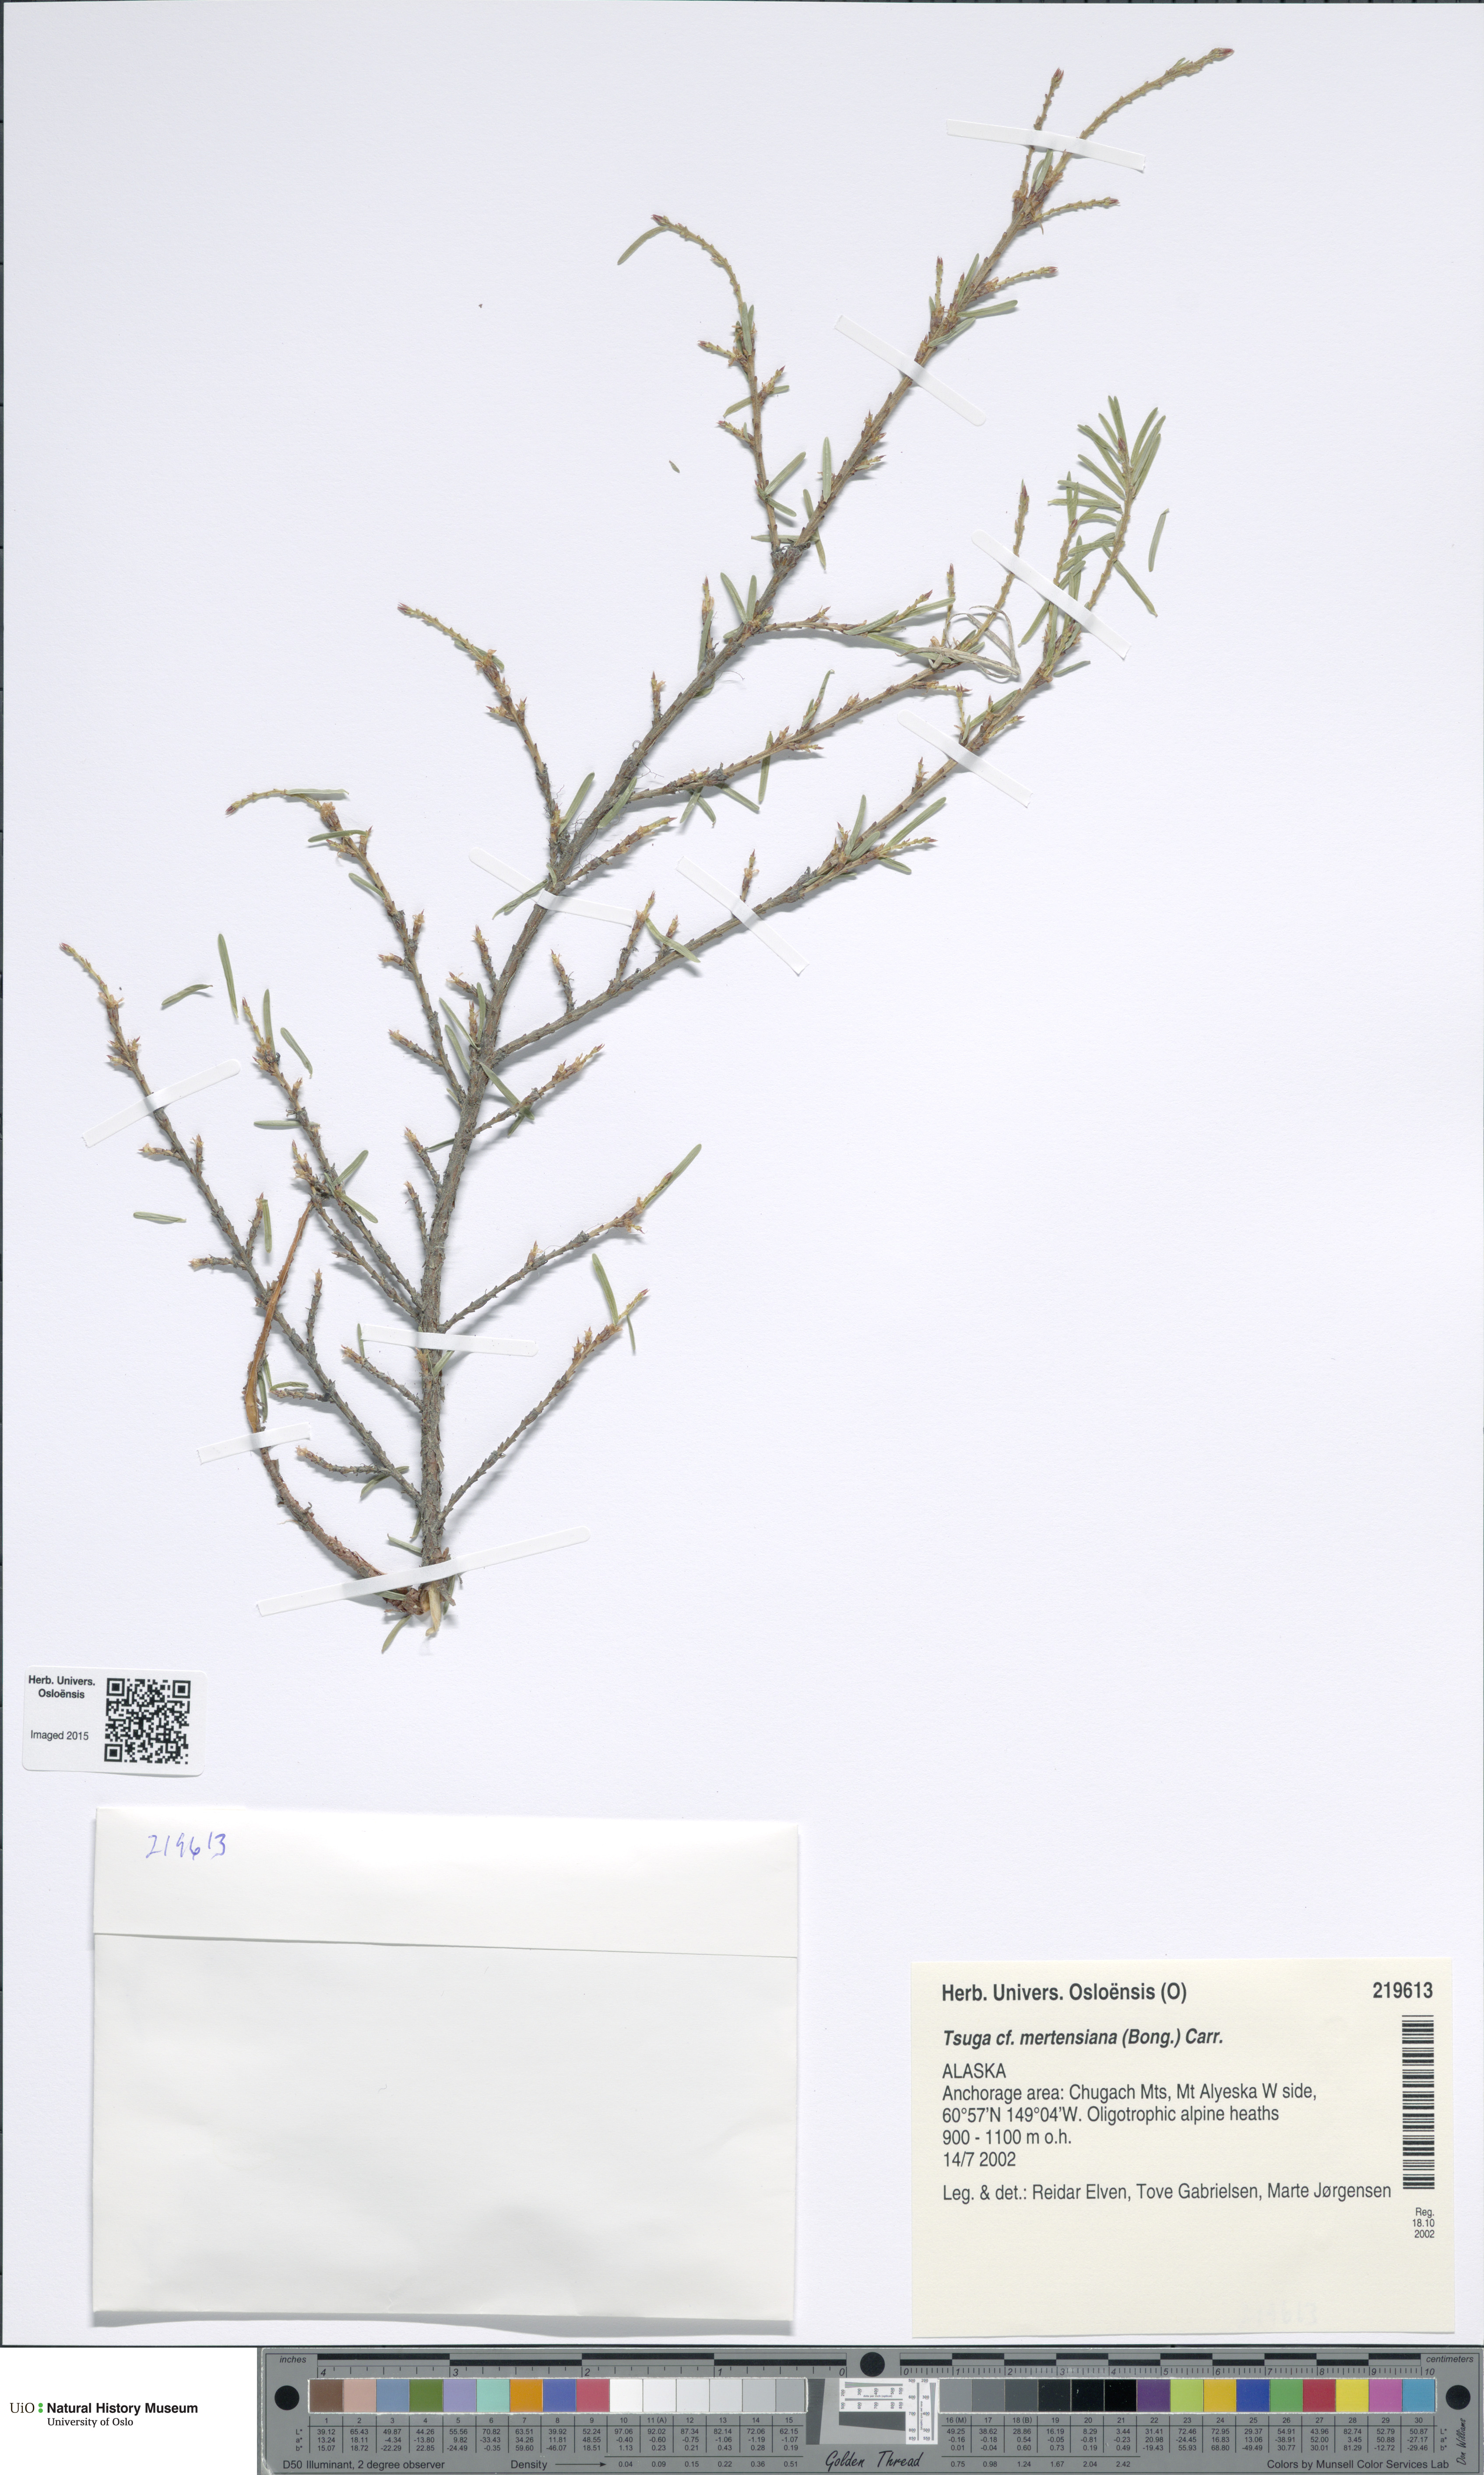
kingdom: Plantae
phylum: Tracheophyta
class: Pinopsida
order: Pinales
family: Pinaceae
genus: Tsuga
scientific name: Tsuga mertensiana
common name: Mountain hemlock
